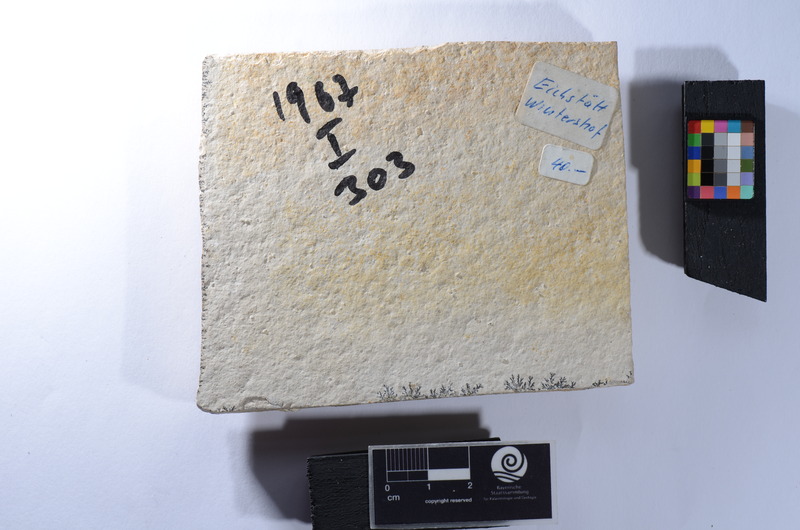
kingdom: Animalia
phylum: Chordata
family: Macrosemiidae
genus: Notagogus
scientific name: Notagogus denticulatus
